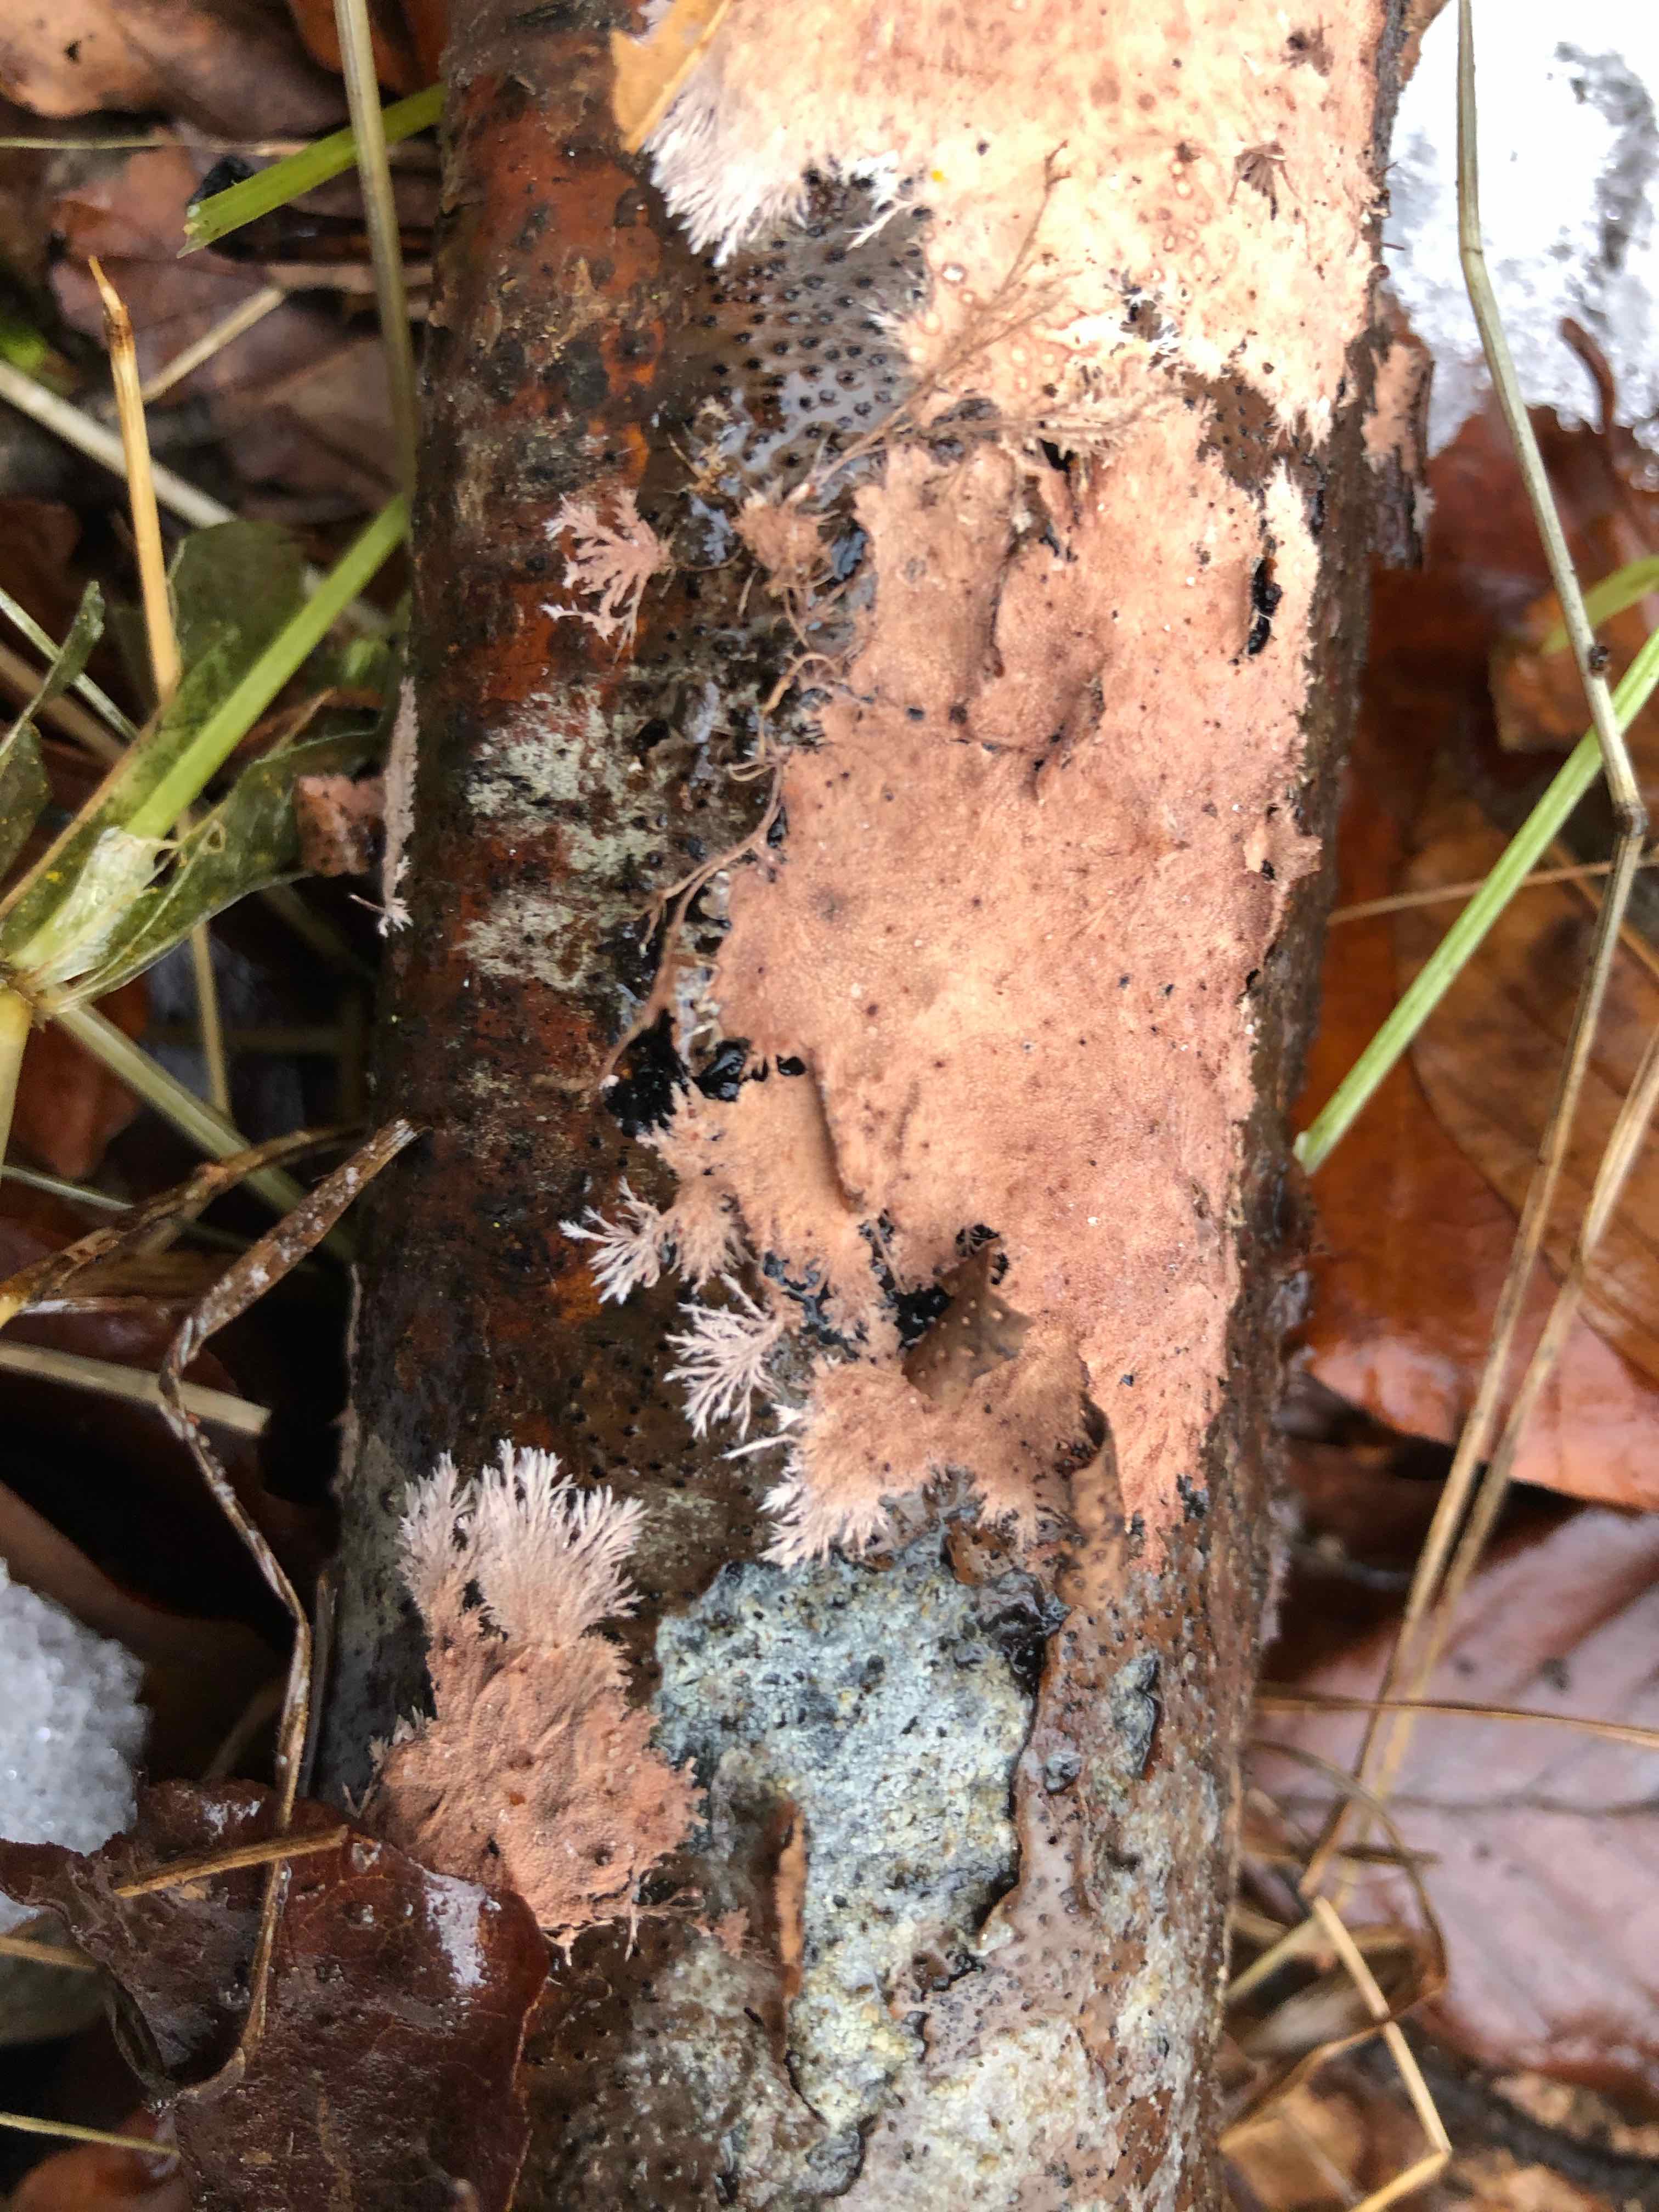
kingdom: Fungi
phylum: Basidiomycota
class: Agaricomycetes
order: Polyporales
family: Steccherinaceae
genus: Steccherinum
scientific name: Steccherinum fimbriatum
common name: trådet skønpig
